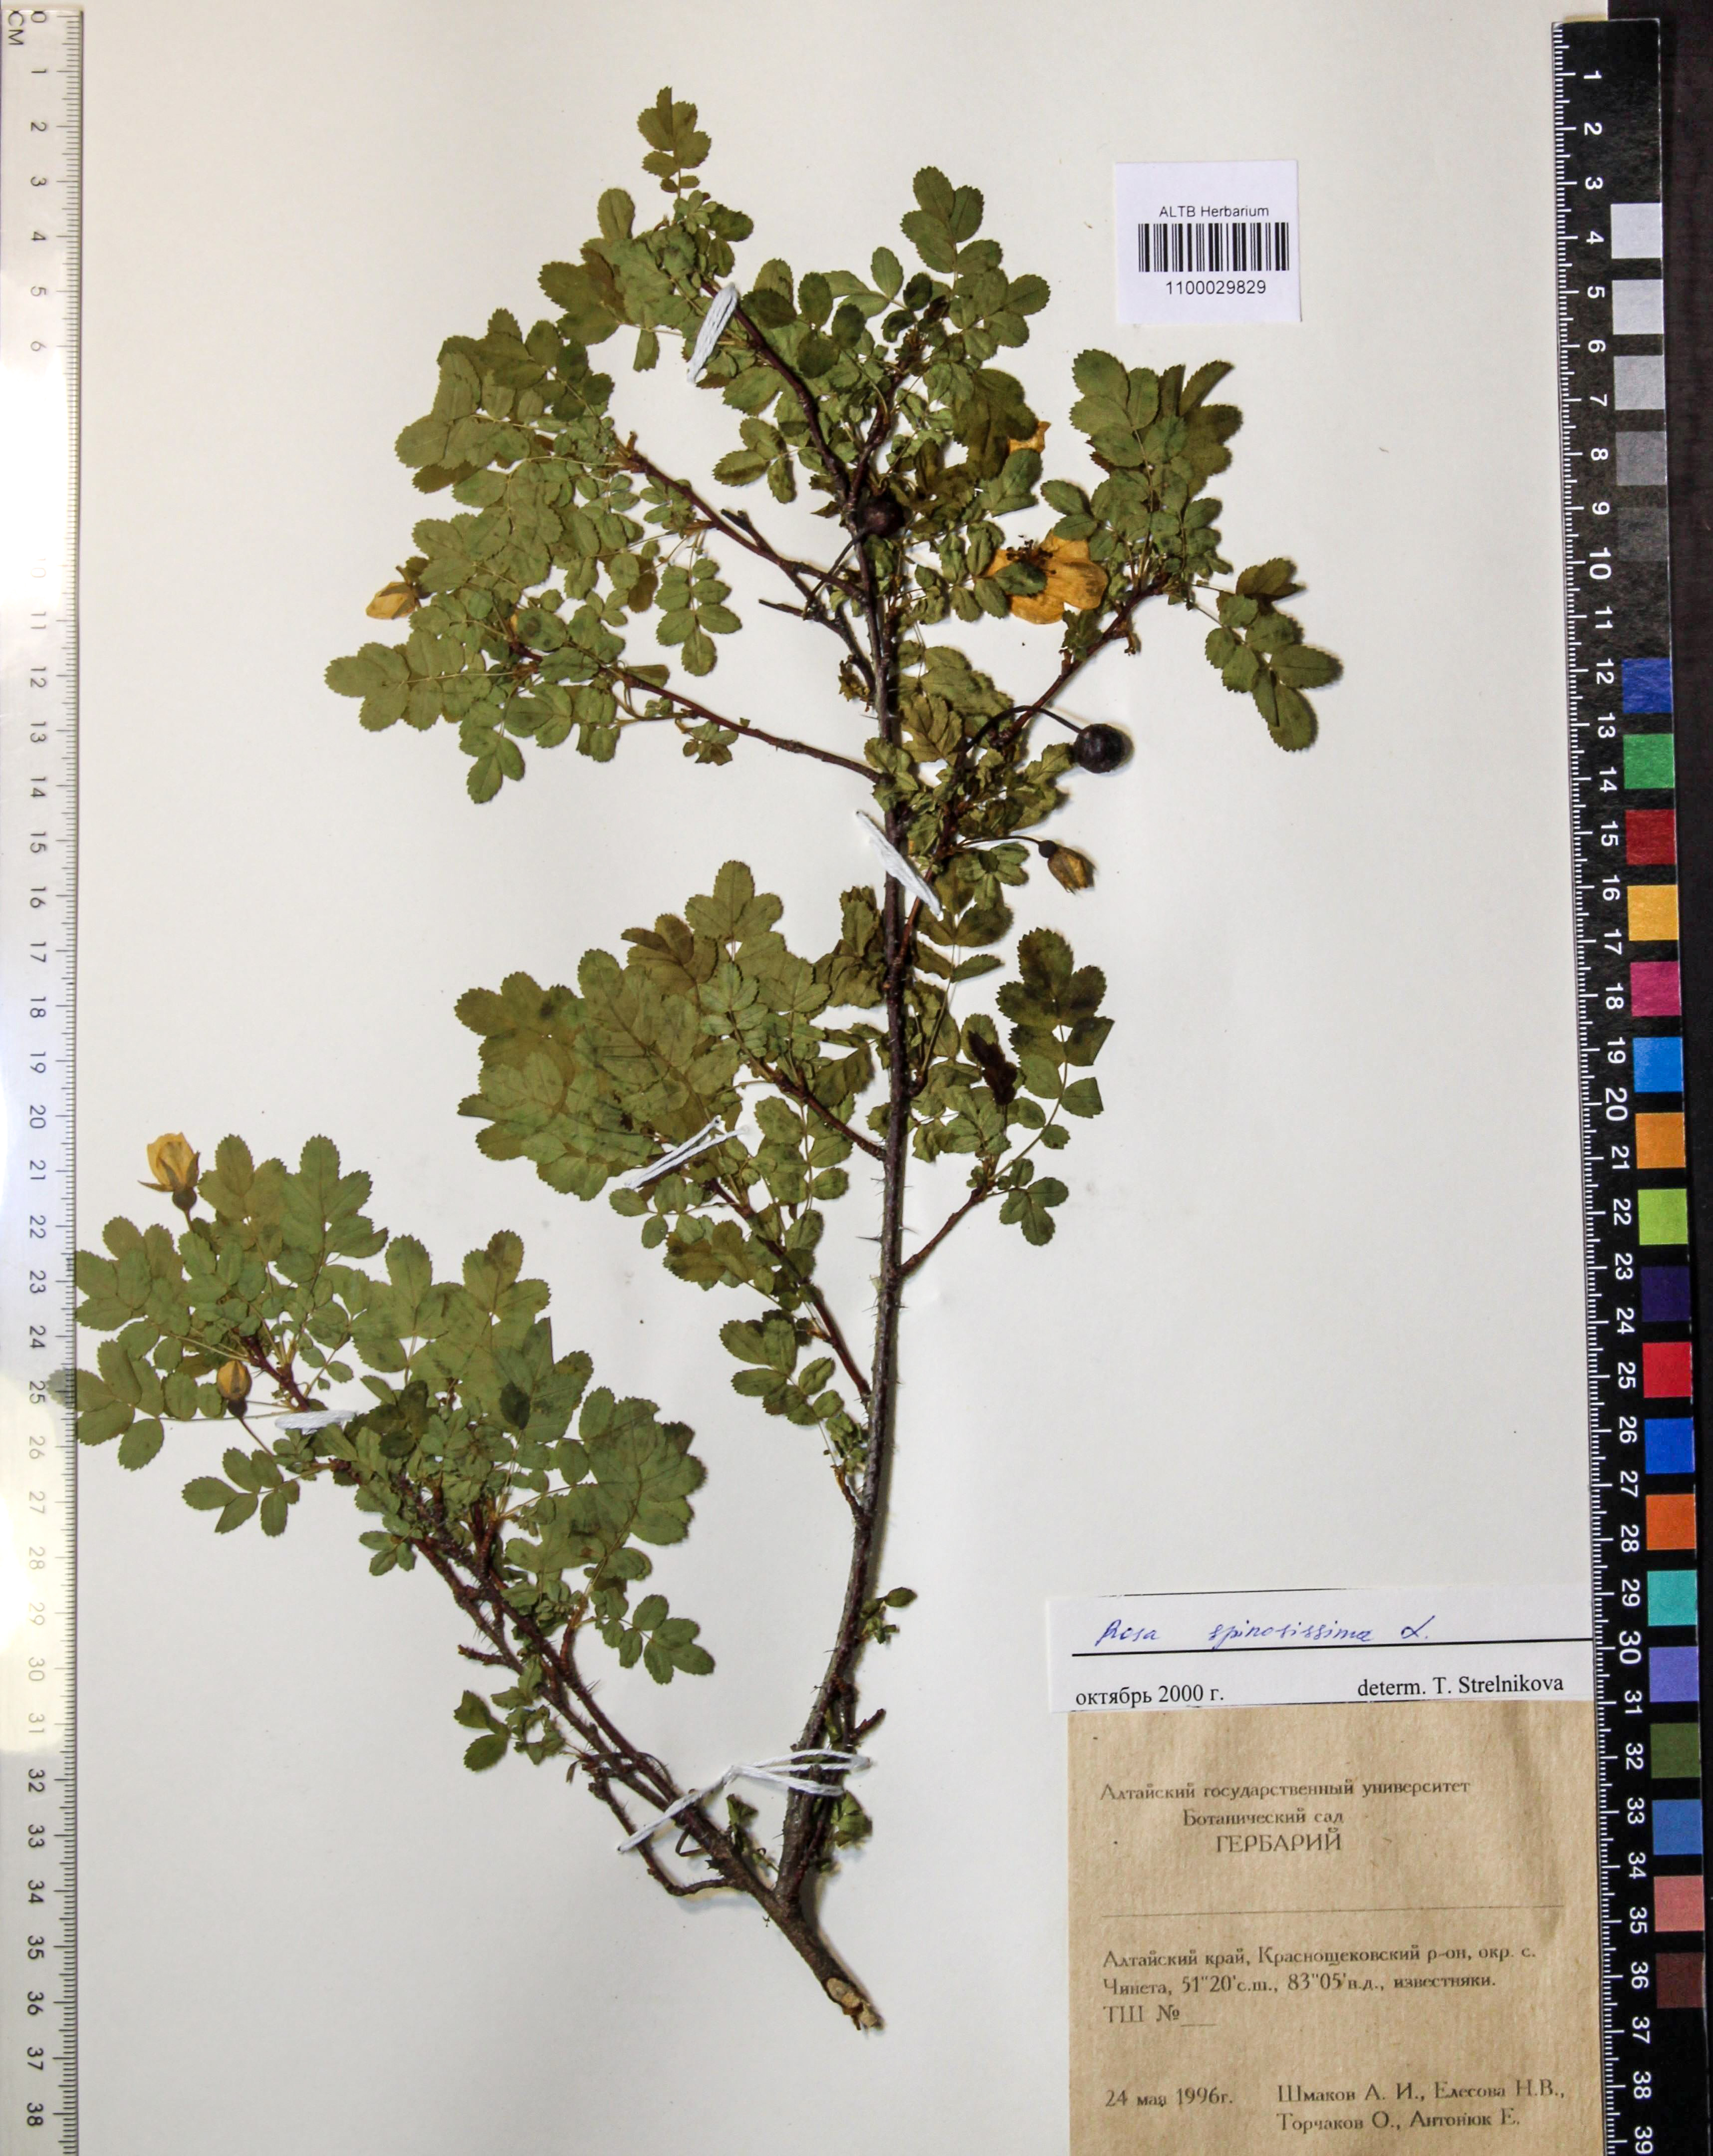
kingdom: Plantae
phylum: Tracheophyta
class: Magnoliopsida
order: Rosales
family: Rosaceae
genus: Rosa
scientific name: Rosa spinosissima
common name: Burnet rose
